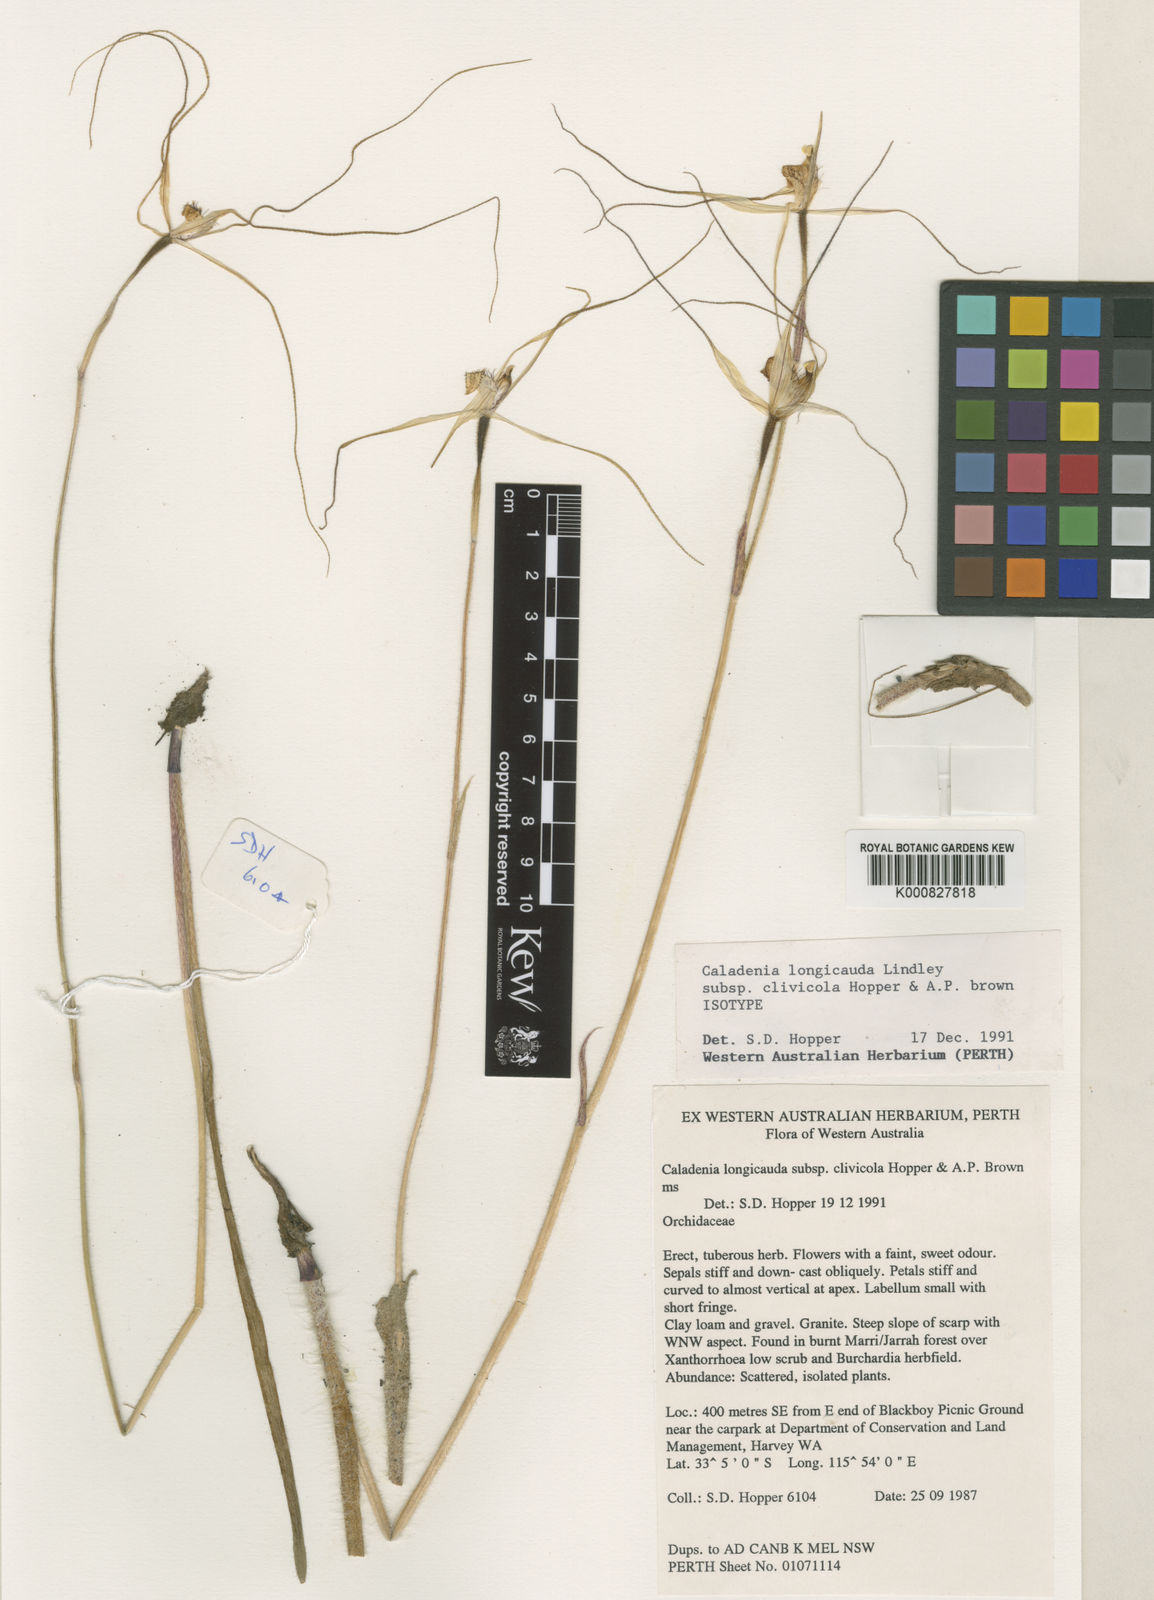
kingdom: Plantae
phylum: Tracheophyta
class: Liliopsida
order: Asparagales
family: Orchidaceae
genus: Caladenia
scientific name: Caladenia longicauda
